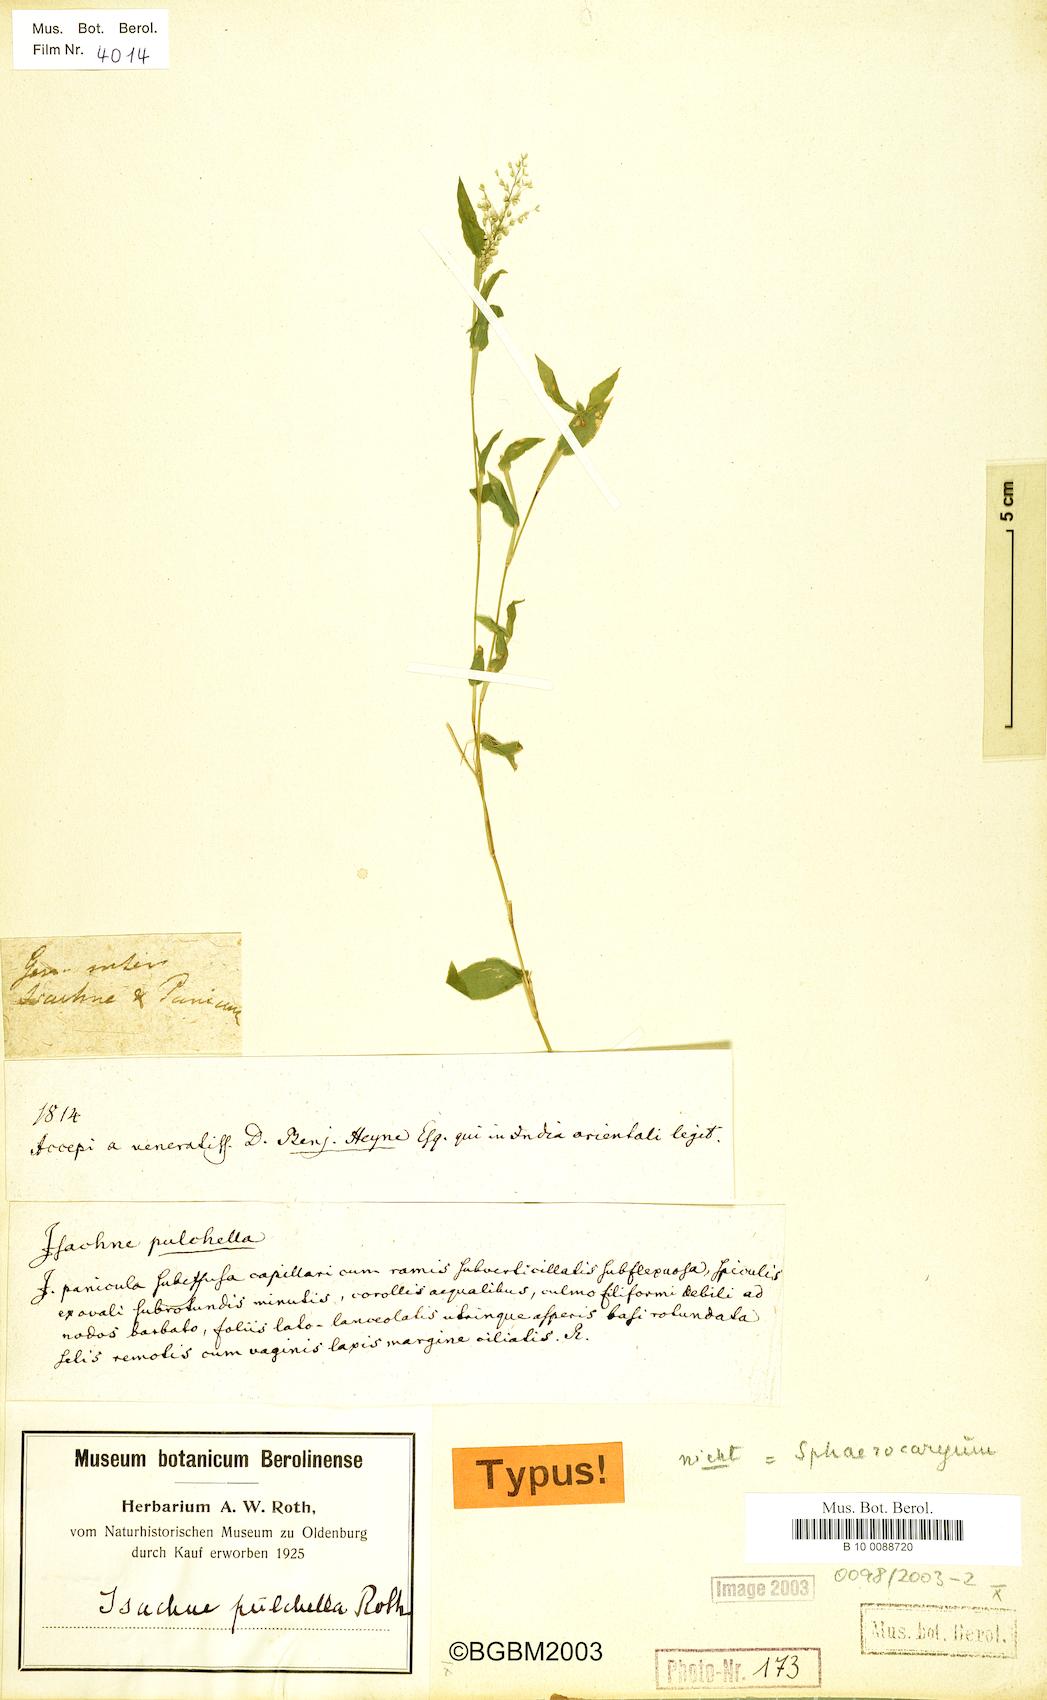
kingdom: Plantae
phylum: Tracheophyta
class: Liliopsida
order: Poales
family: Poaceae
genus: Isachne
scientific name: Isachne pulchella
